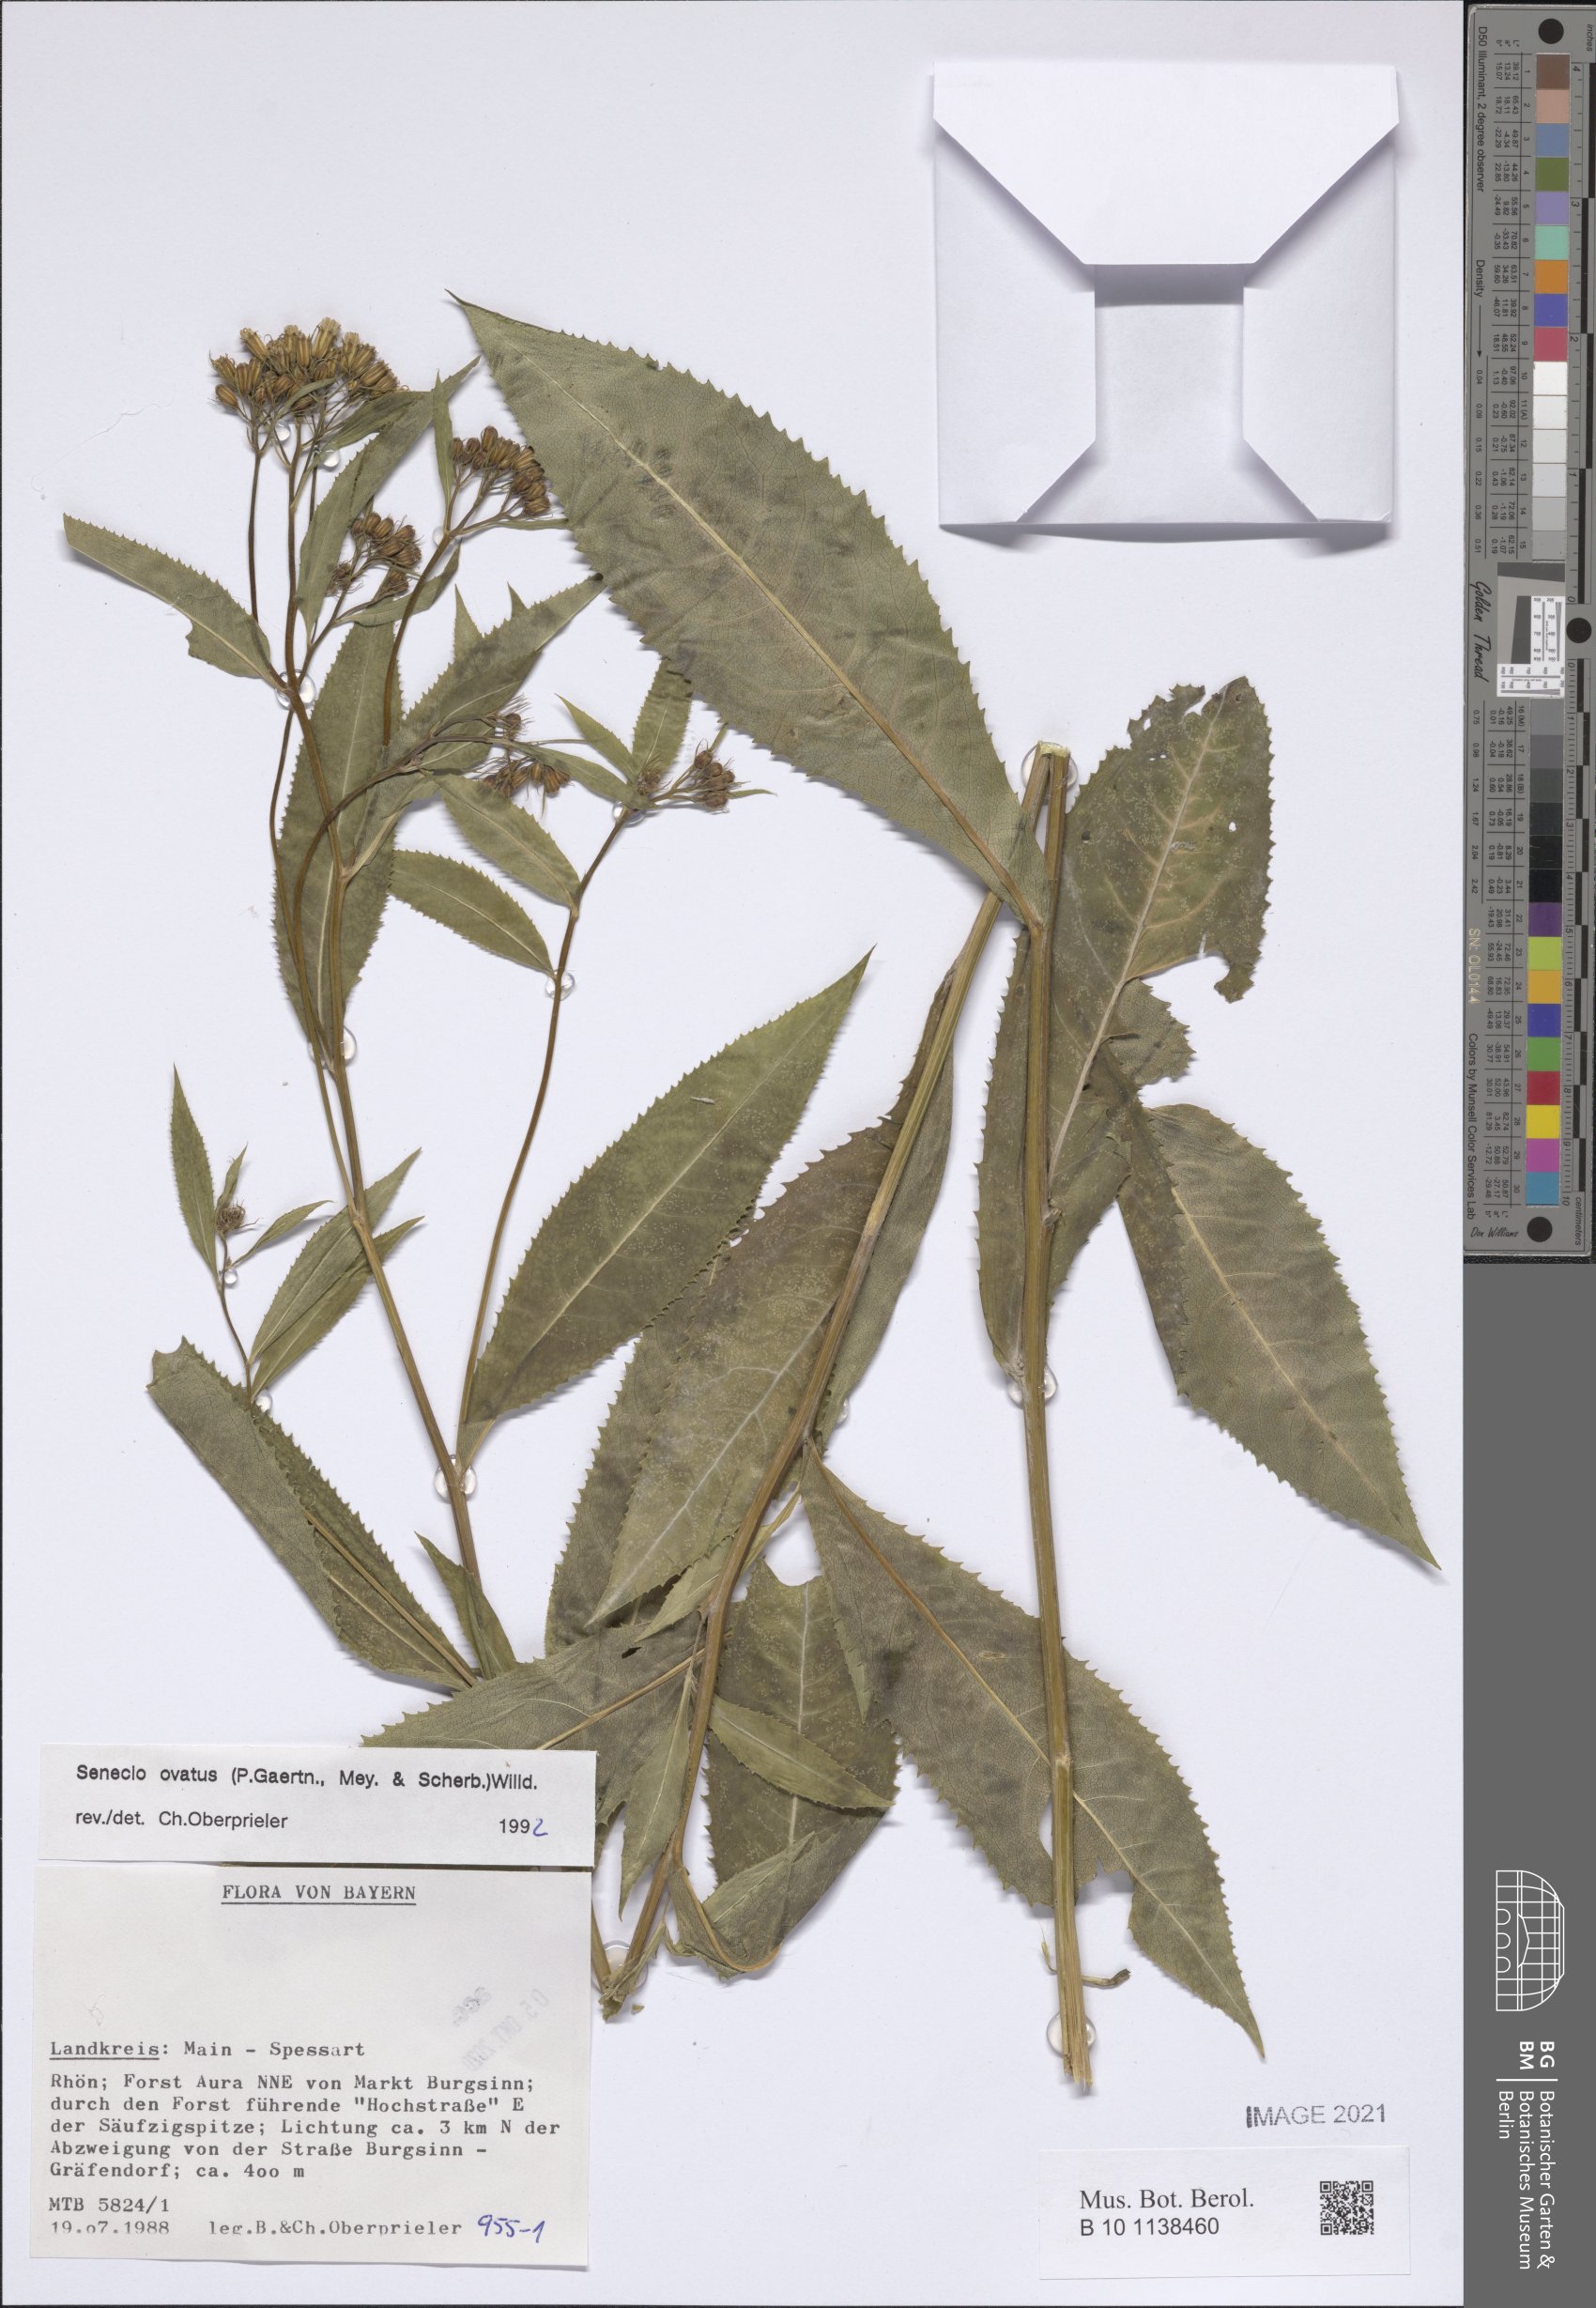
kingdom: Plantae
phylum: Tracheophyta
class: Magnoliopsida
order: Asterales
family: Asteraceae
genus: Senecio
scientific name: Senecio ovatus
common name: Wood ragwort
